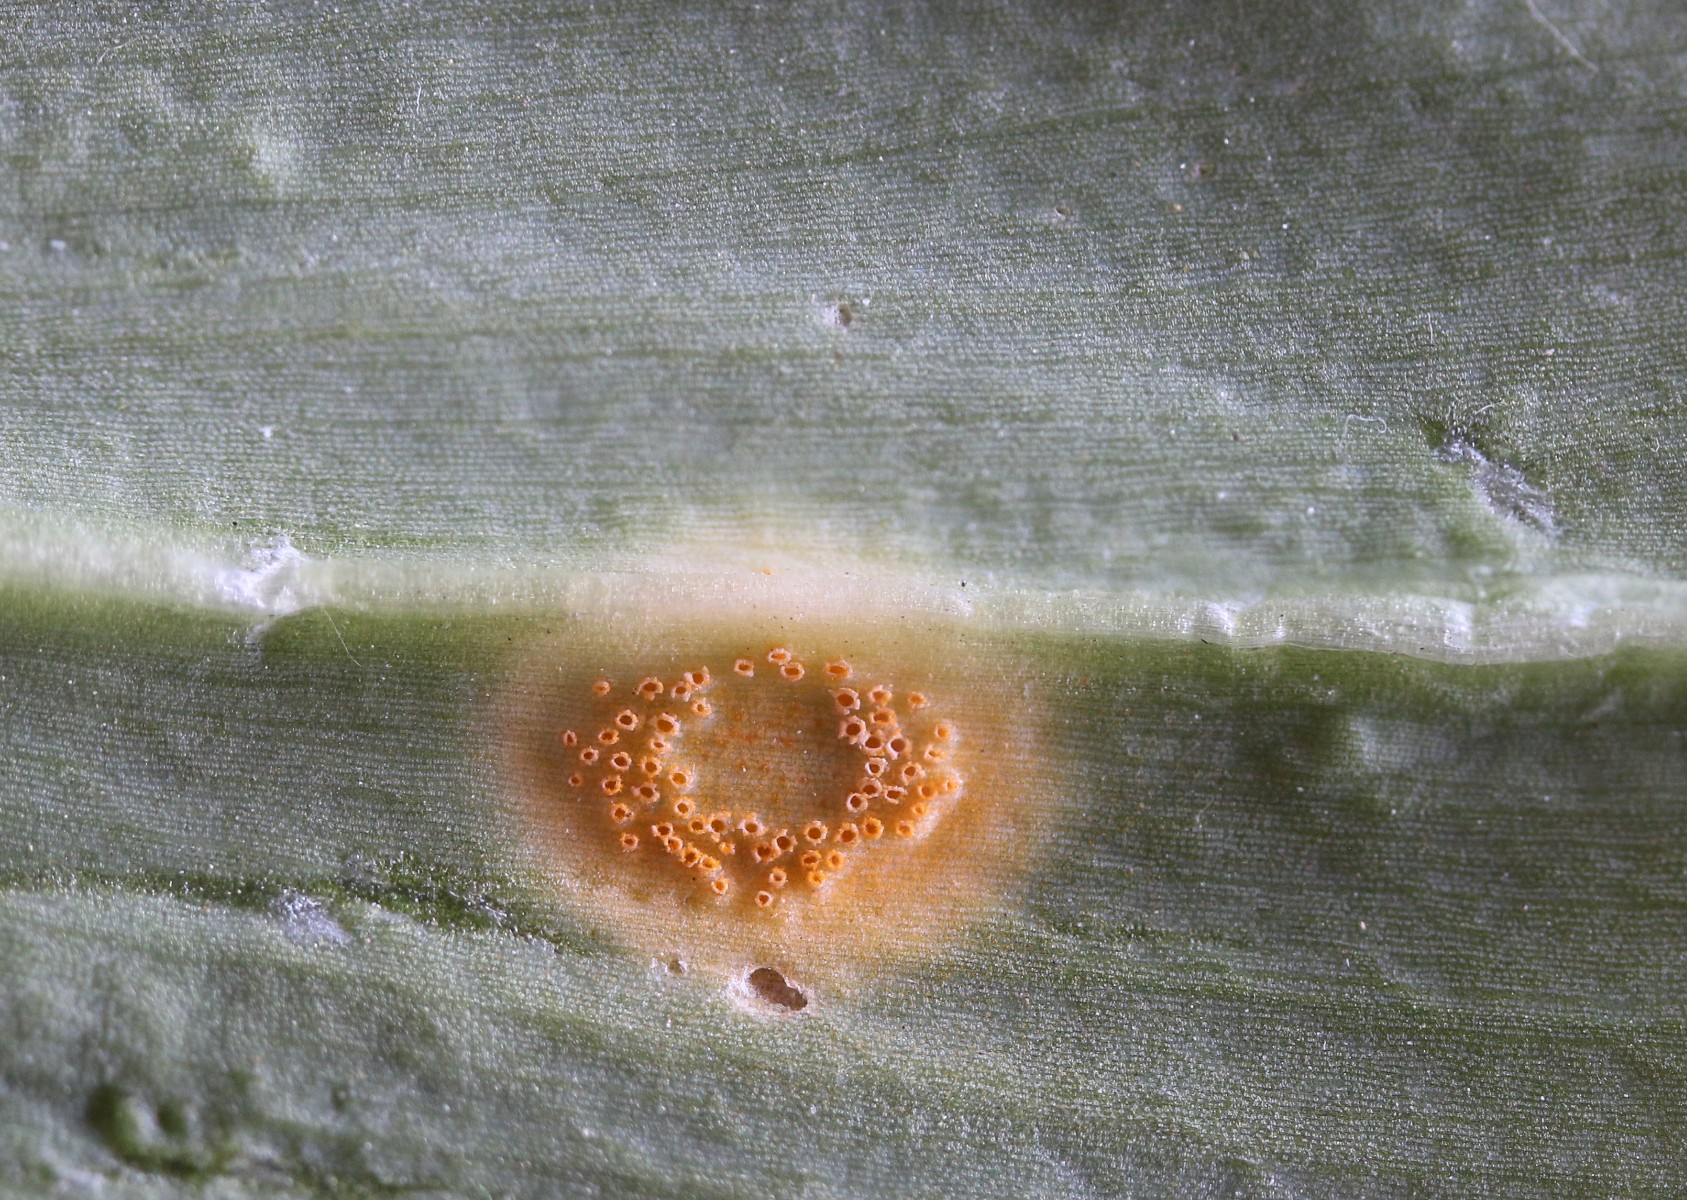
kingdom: Fungi
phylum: Basidiomycota
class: Pucciniomycetes
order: Pucciniales
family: Pucciniaceae
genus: Puccinia
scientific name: Puccinia sessilis
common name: Arum rust
